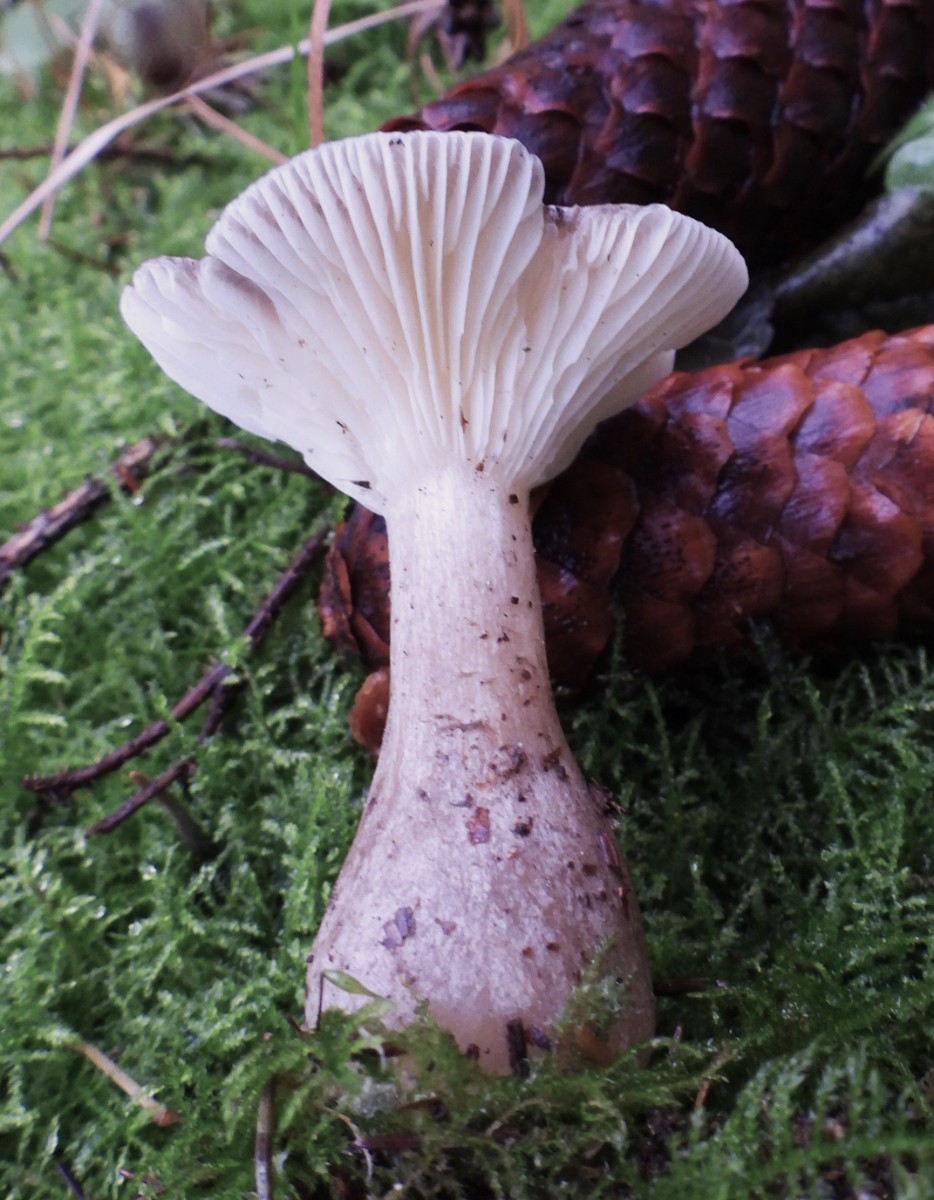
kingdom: Fungi
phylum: Basidiomycota
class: Agaricomycetes
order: Agaricales
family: Hygrophoraceae
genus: Ampulloclitocybe
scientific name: Ampulloclitocybe clavipes
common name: køllefod
